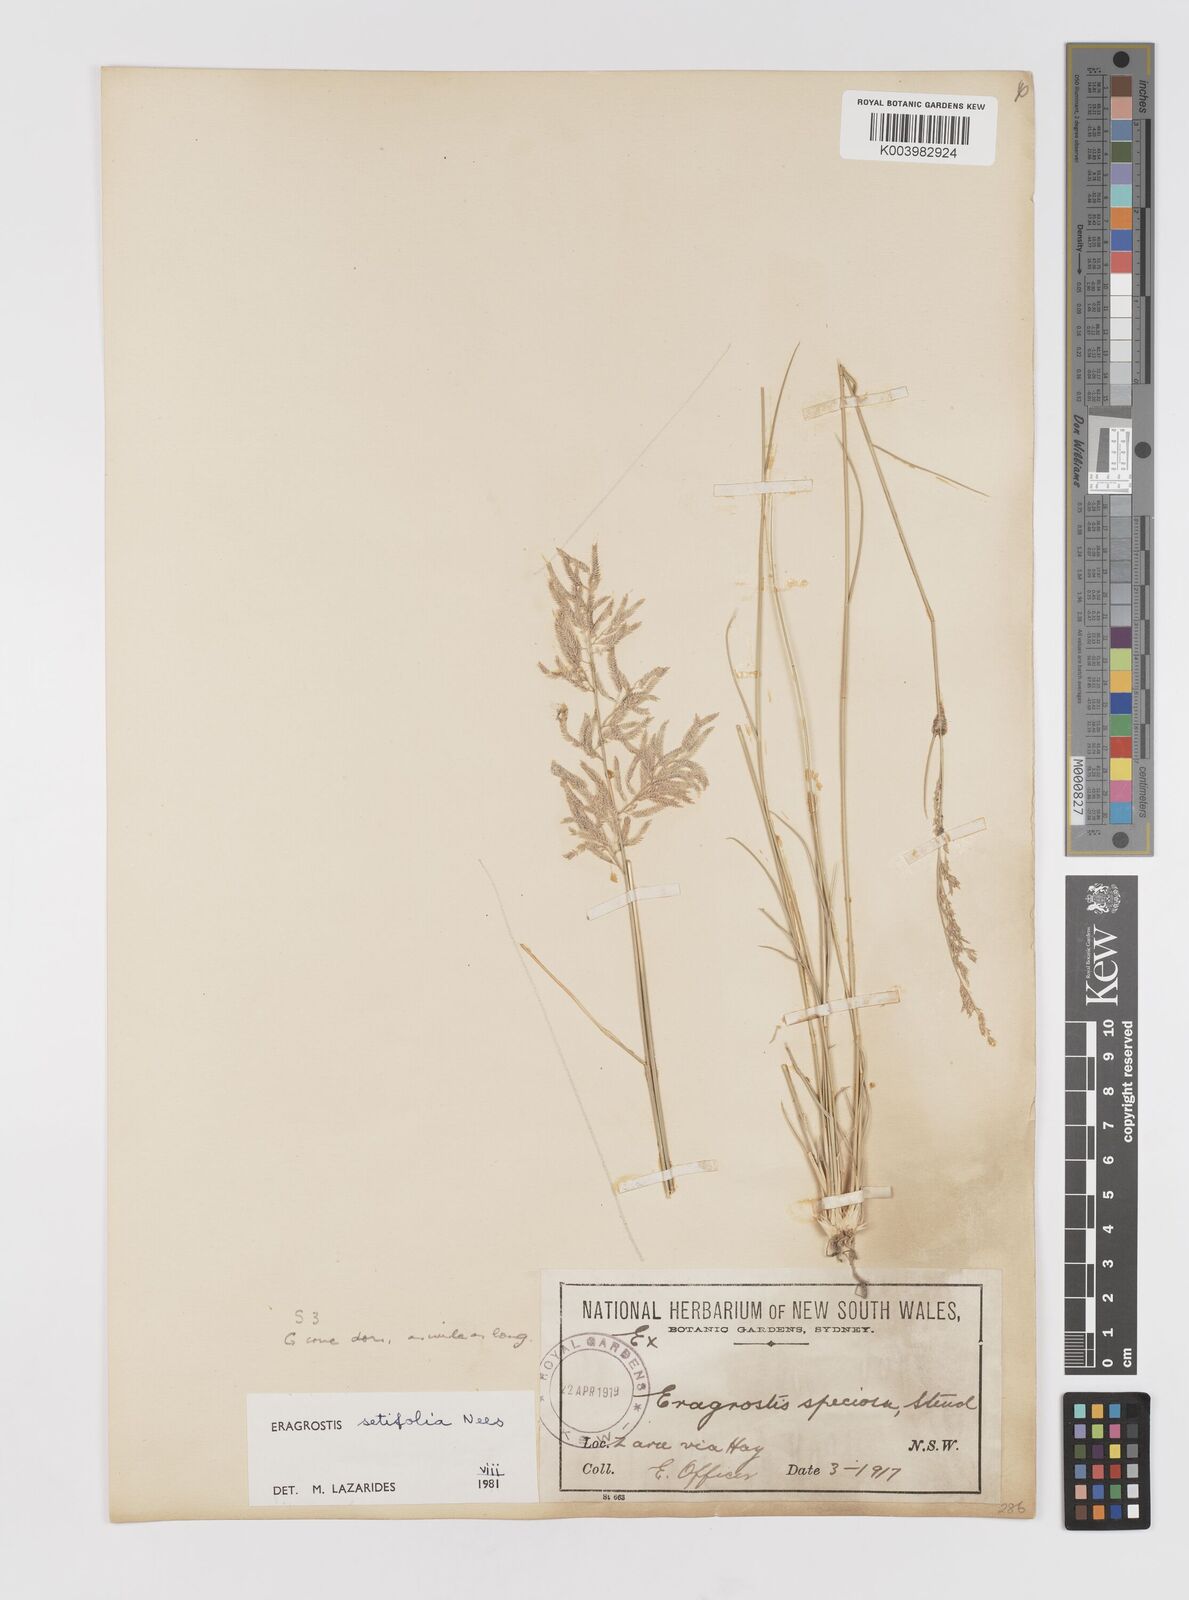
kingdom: Plantae
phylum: Tracheophyta
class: Liliopsida
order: Poales
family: Poaceae
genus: Eragrostis
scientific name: Eragrostis setifolia
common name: Bristleleaf lovegrass
